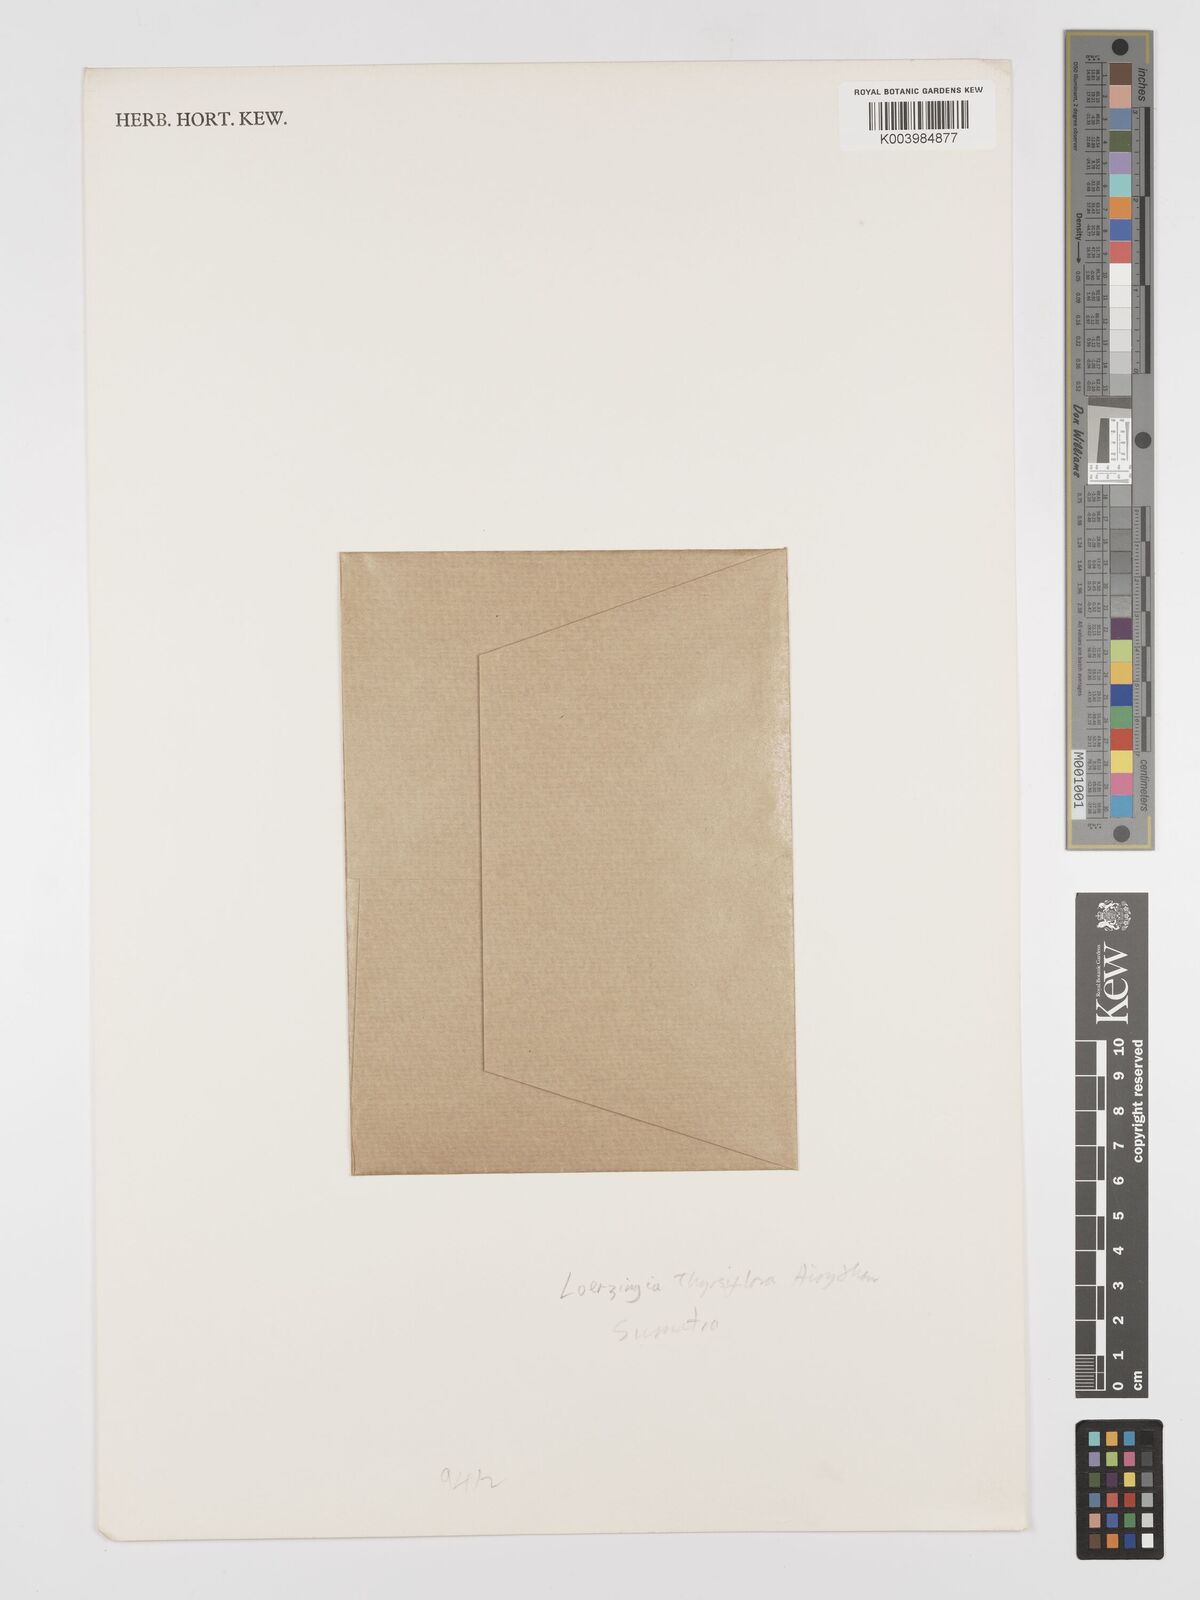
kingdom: Plantae
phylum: Tracheophyta
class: Magnoliopsida
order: Malpighiales
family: Euphorbiaceae
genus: Deutzianthus
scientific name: Deutzianthus thyrsiflorus
